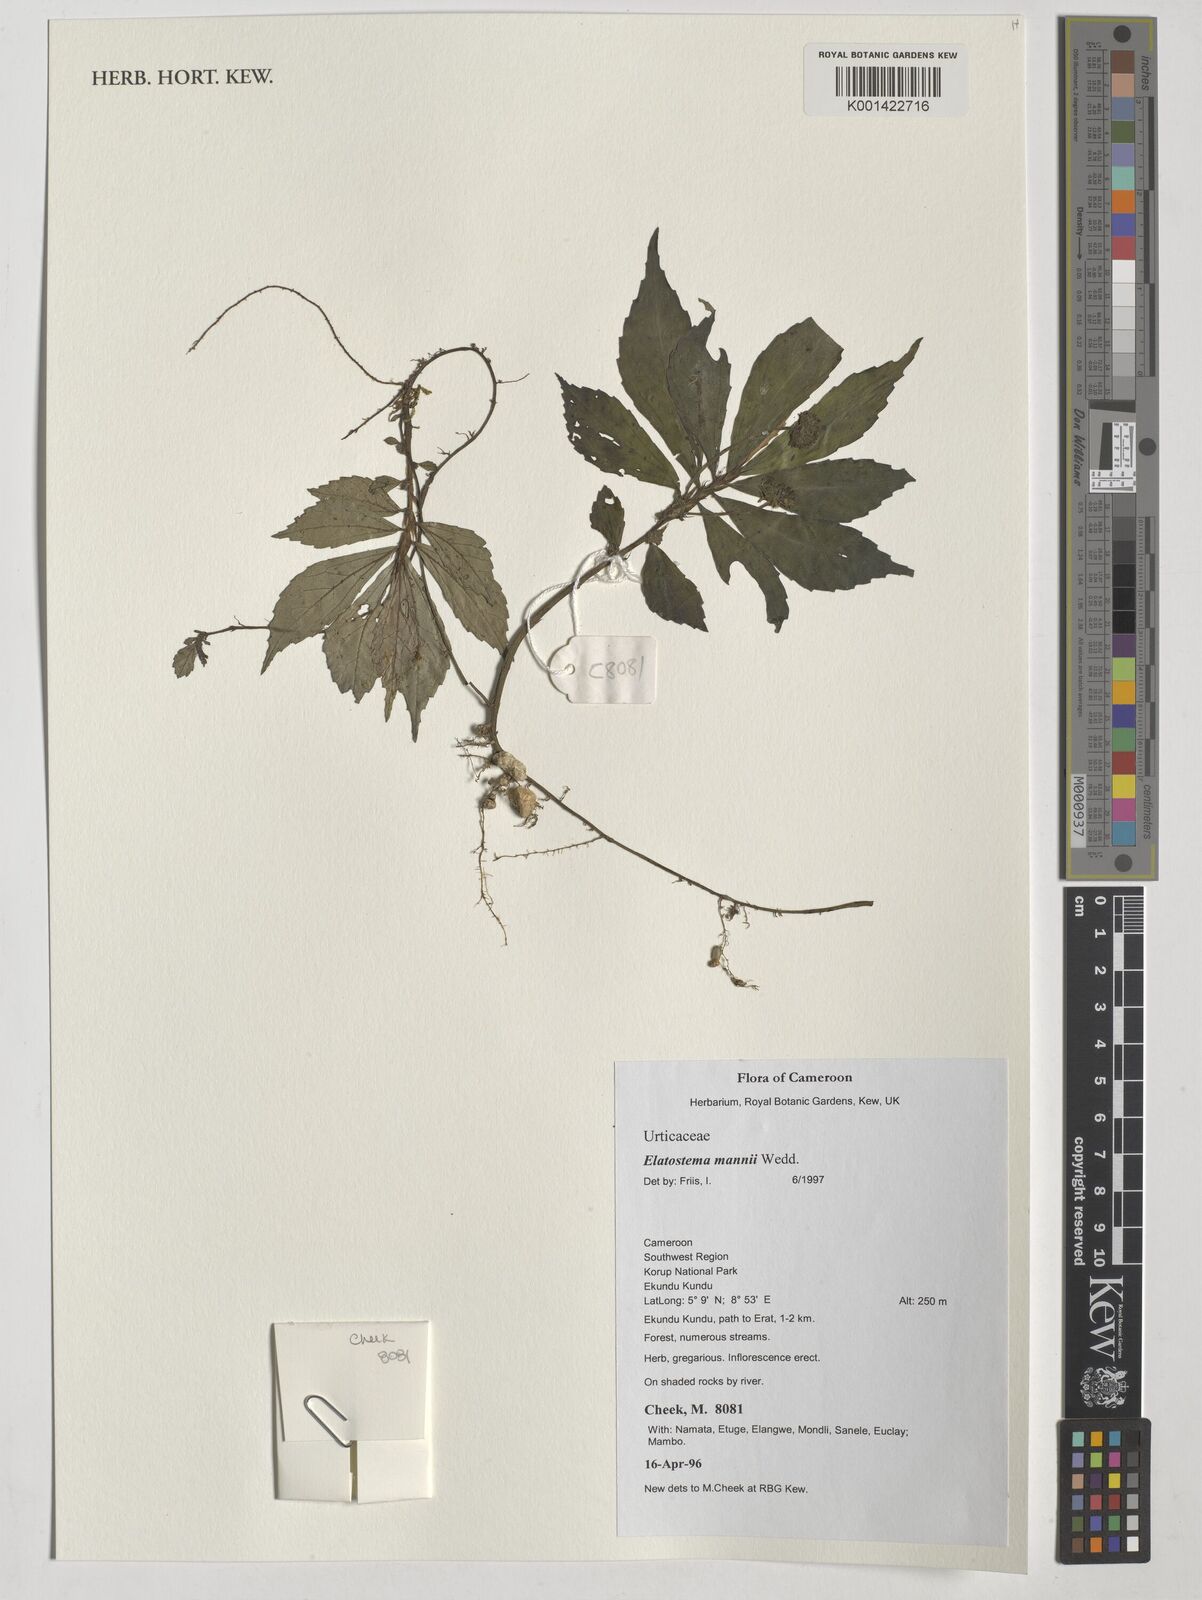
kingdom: Plantae
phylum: Tracheophyta
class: Magnoliopsida
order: Rosales
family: Urticaceae
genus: Elatostema
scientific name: Elatostema mannii
